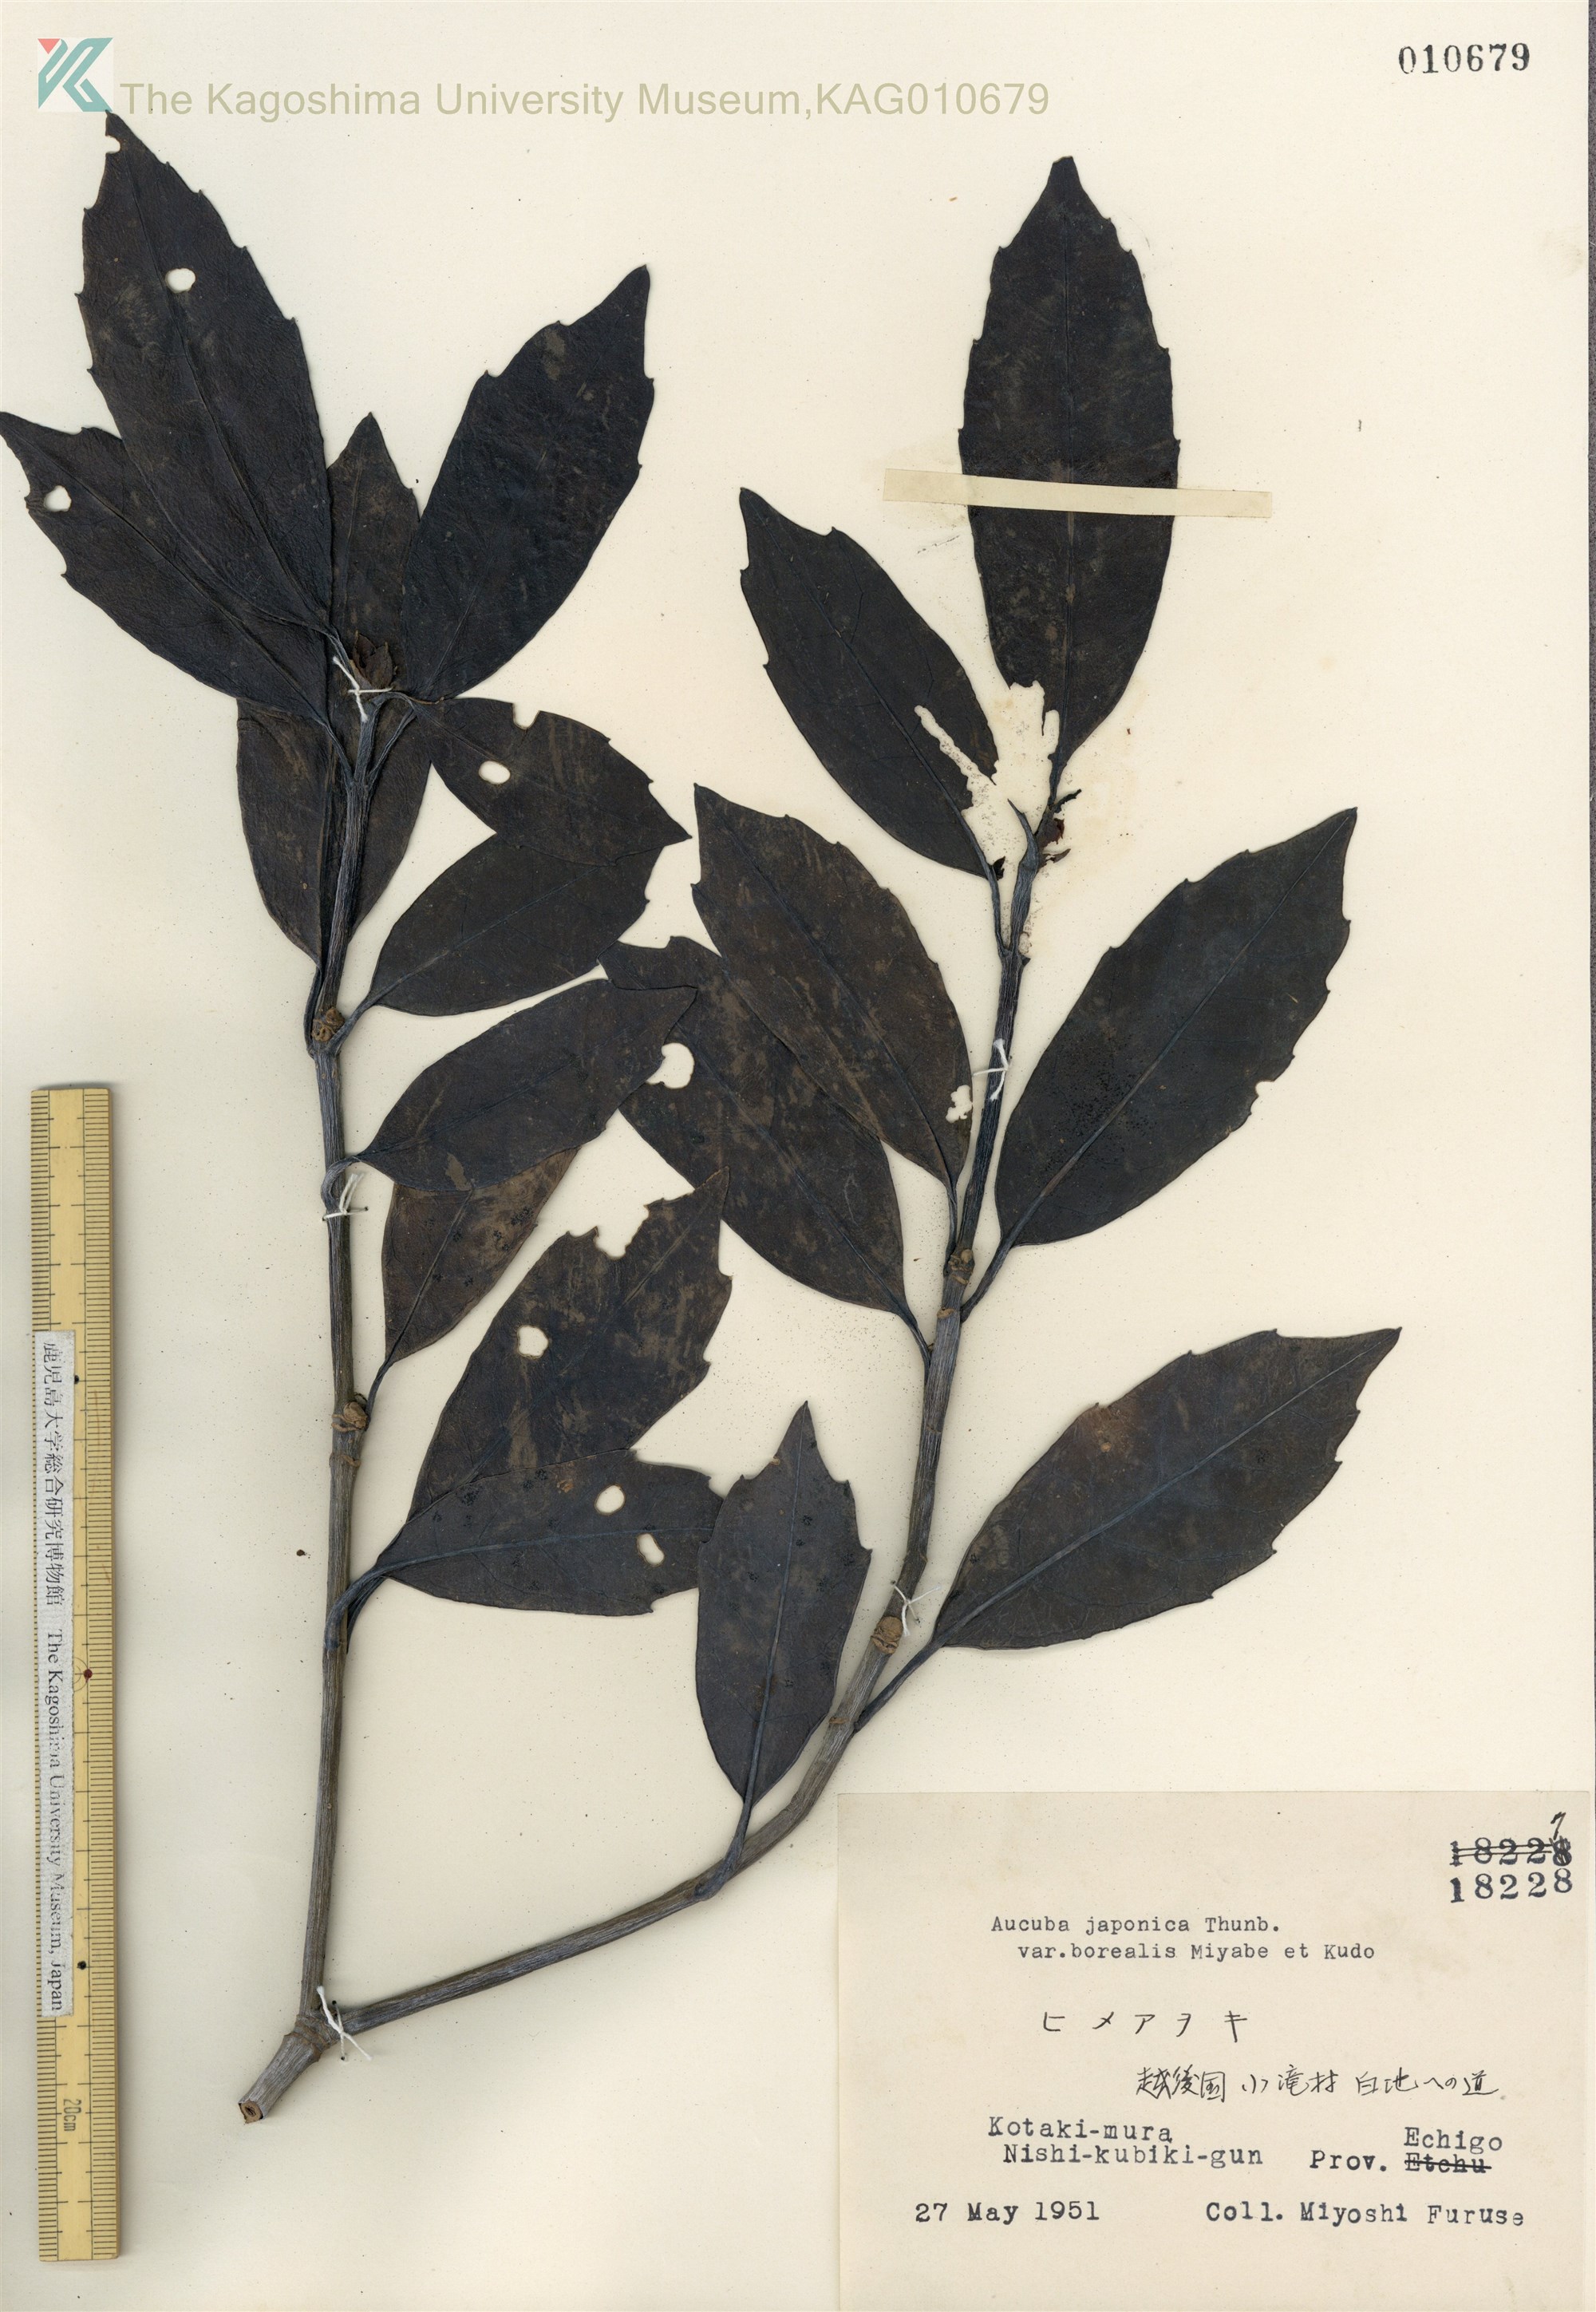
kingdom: Plantae
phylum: Tracheophyta
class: Magnoliopsida
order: Garryales
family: Garryaceae
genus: Aucuba
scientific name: Aucuba japonica
